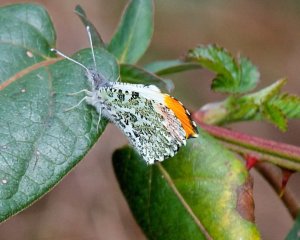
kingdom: Animalia
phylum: Arthropoda
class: Insecta
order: Lepidoptera
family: Pieridae
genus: Anthocharis
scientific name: Anthocharis midea
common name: Falcate Orangetip
